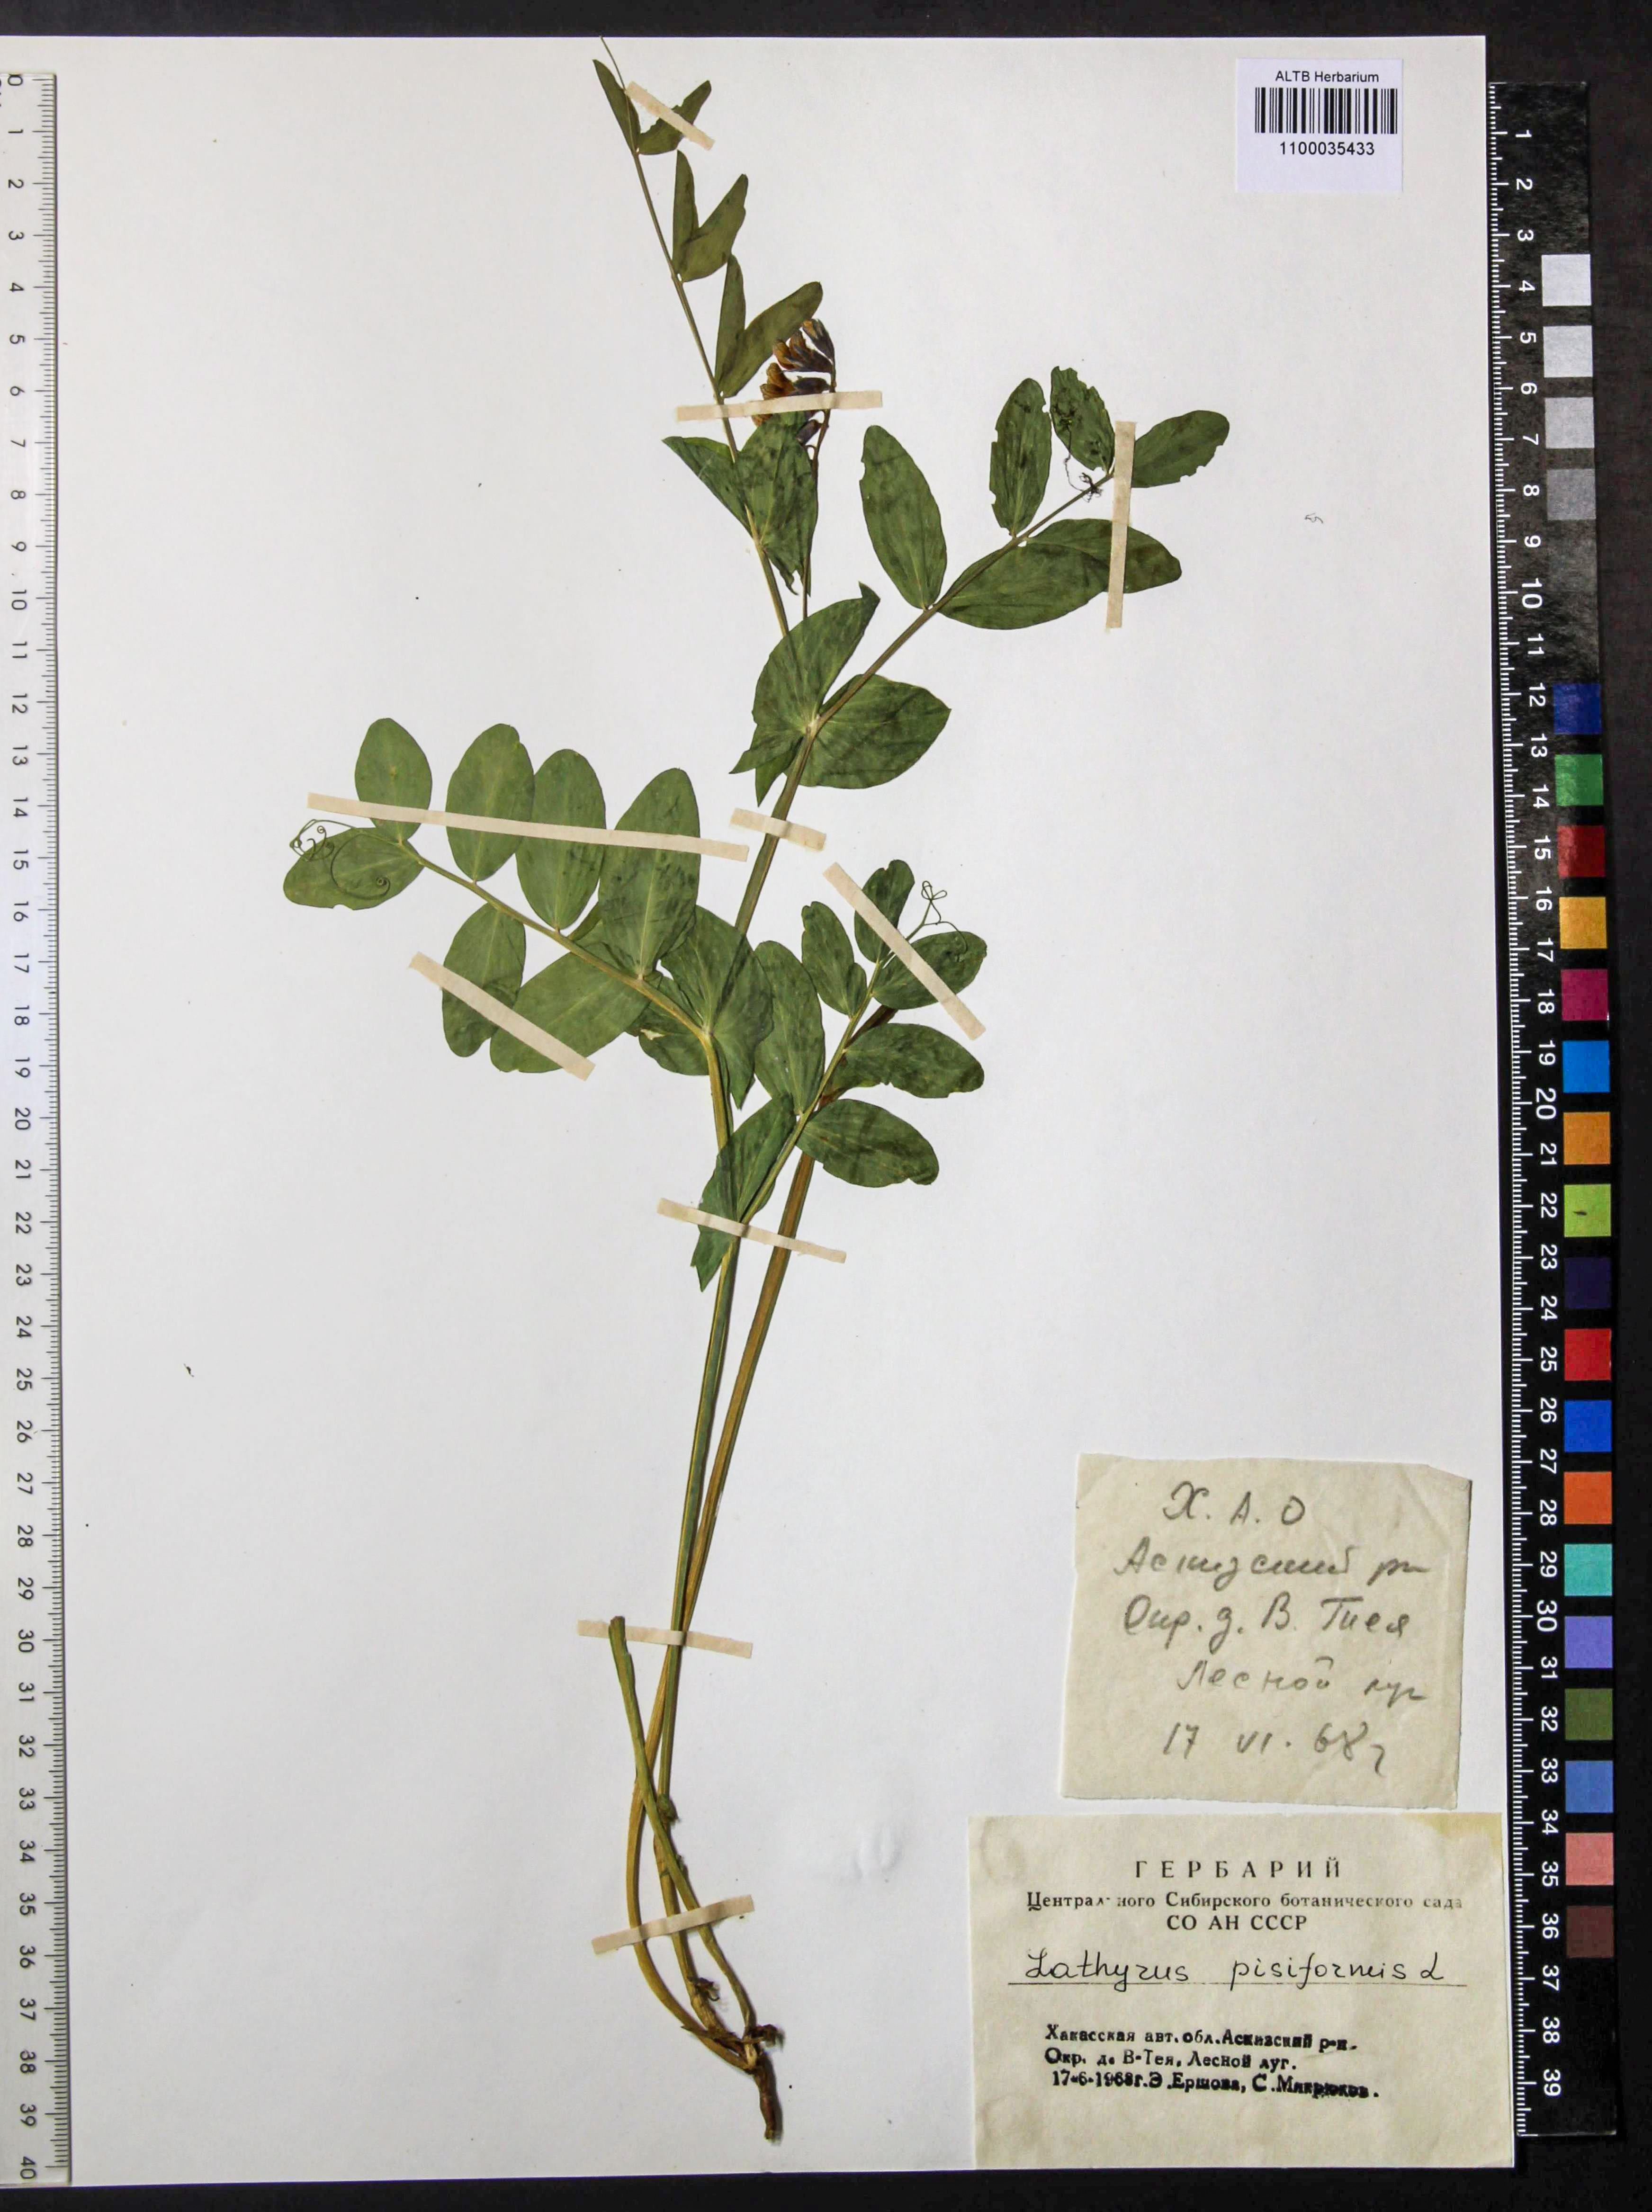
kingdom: Plantae
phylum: Tracheophyta
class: Magnoliopsida
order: Fabales
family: Fabaceae
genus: Lathyrus
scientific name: Lathyrus pisiformis
